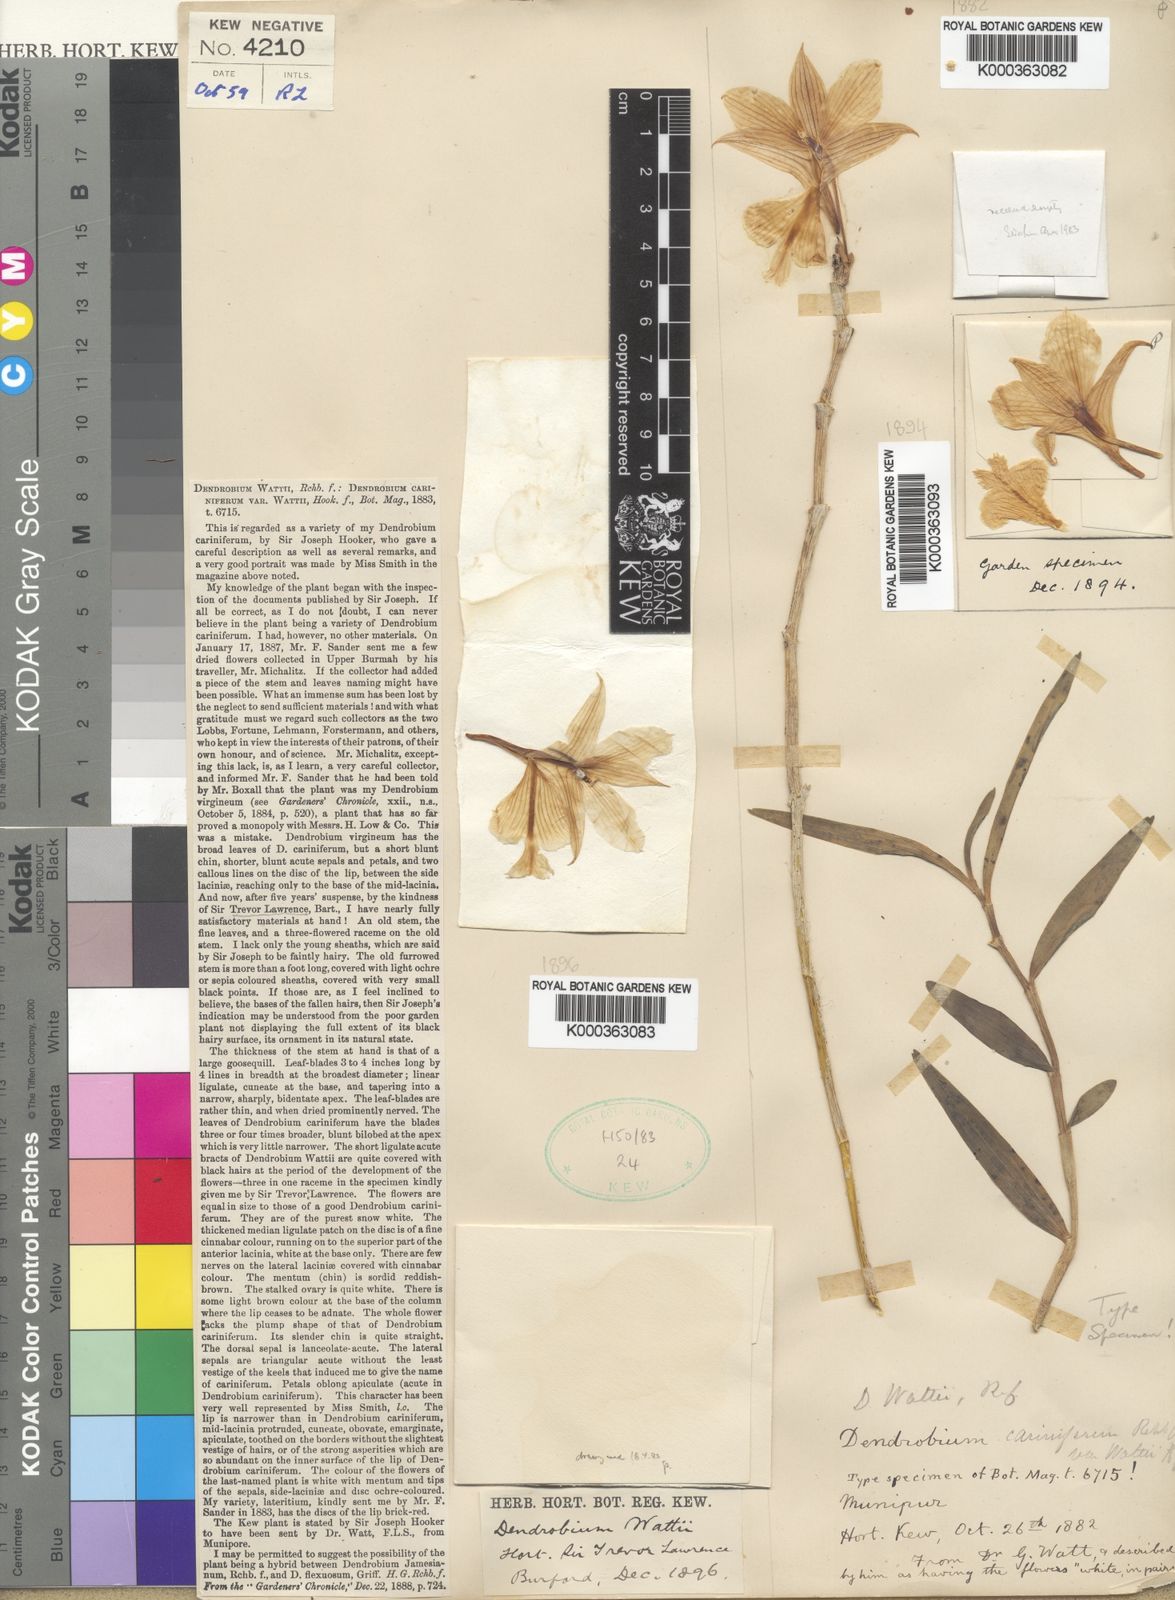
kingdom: Plantae
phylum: Tracheophyta
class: Liliopsida
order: Asparagales
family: Orchidaceae
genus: Dendrobium
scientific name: Dendrobium wattii
